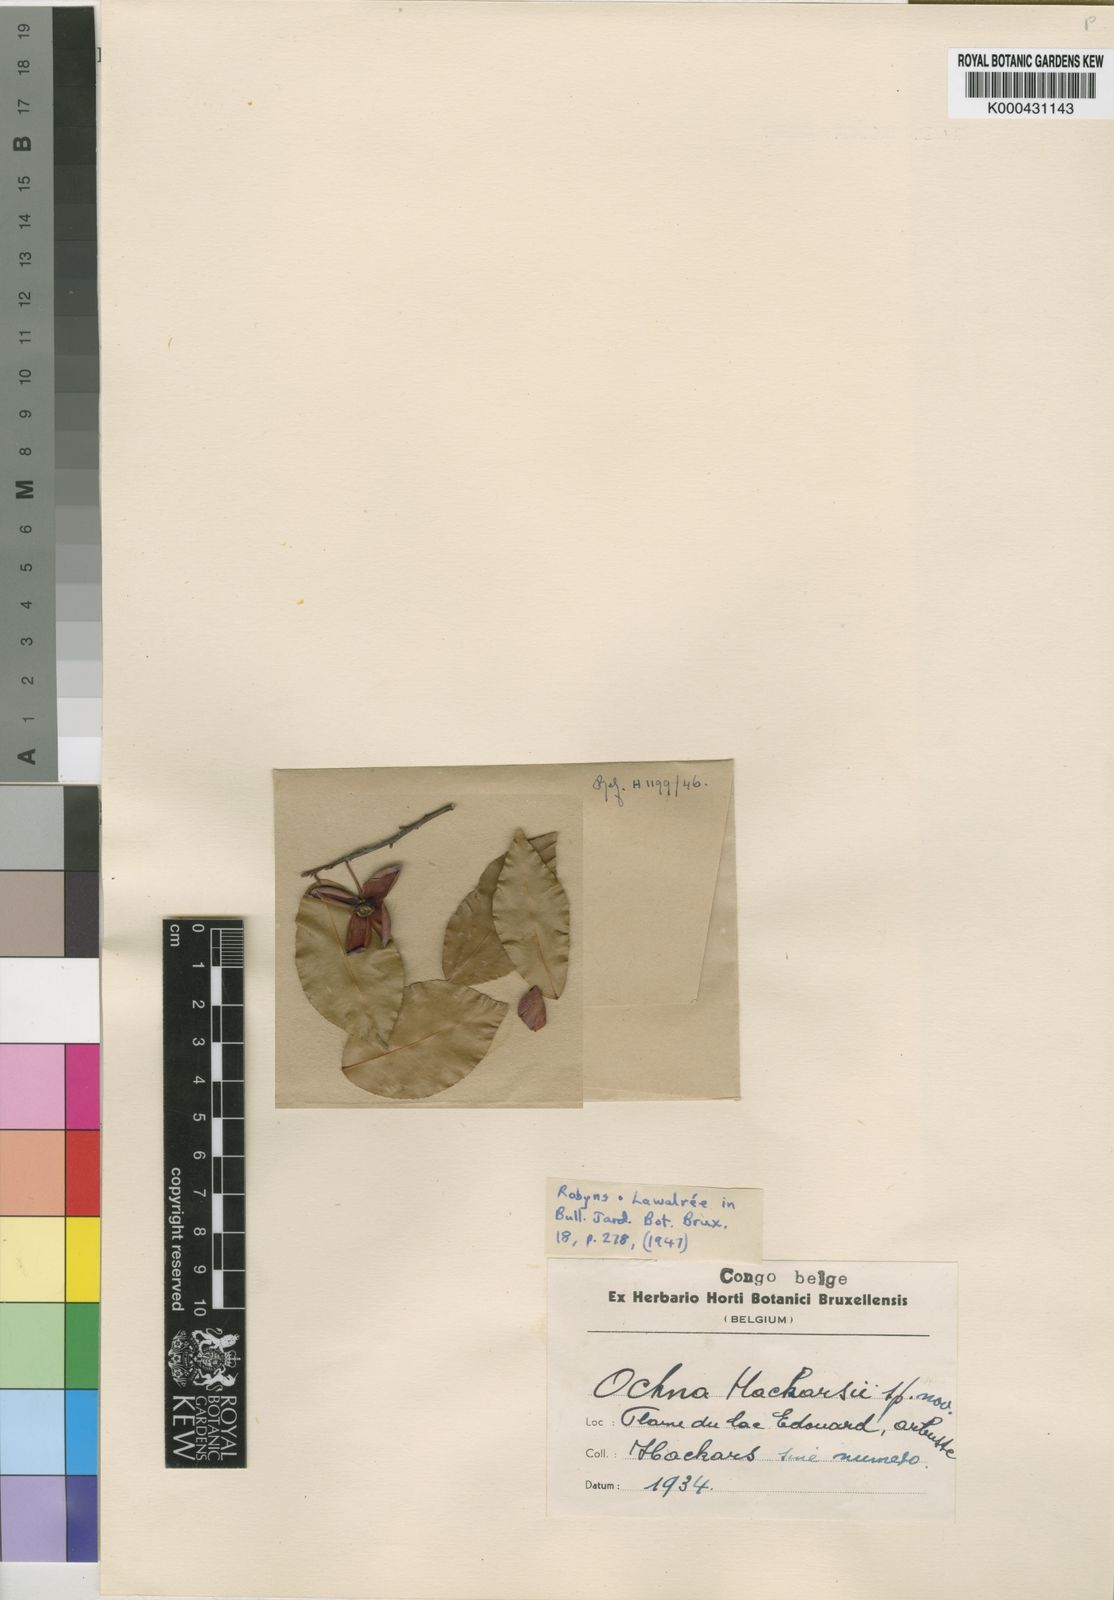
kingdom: Plantae
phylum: Tracheophyta
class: Magnoliopsida
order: Malpighiales
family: Ochnaceae
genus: Ochna
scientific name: Ochna
